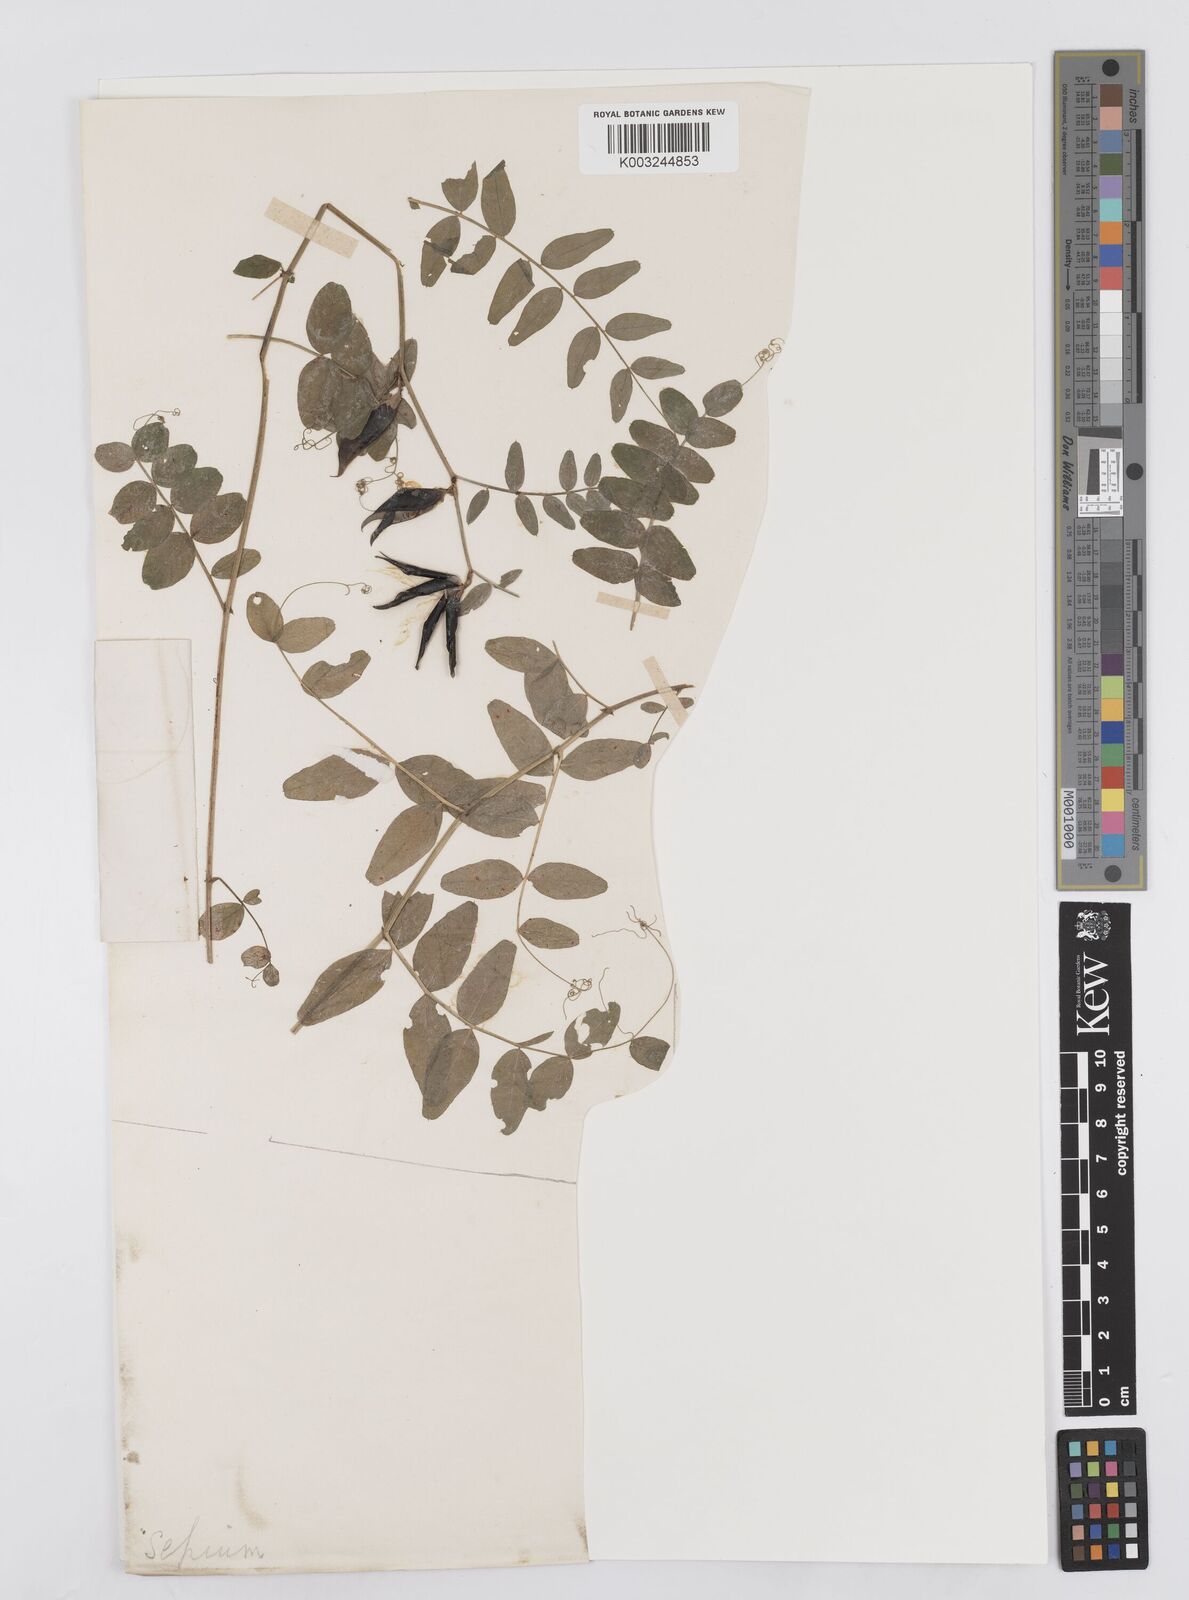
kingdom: Plantae
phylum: Tracheophyta
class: Magnoliopsida
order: Fabales
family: Fabaceae
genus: Vicia
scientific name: Vicia sepium
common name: Bush vetch
